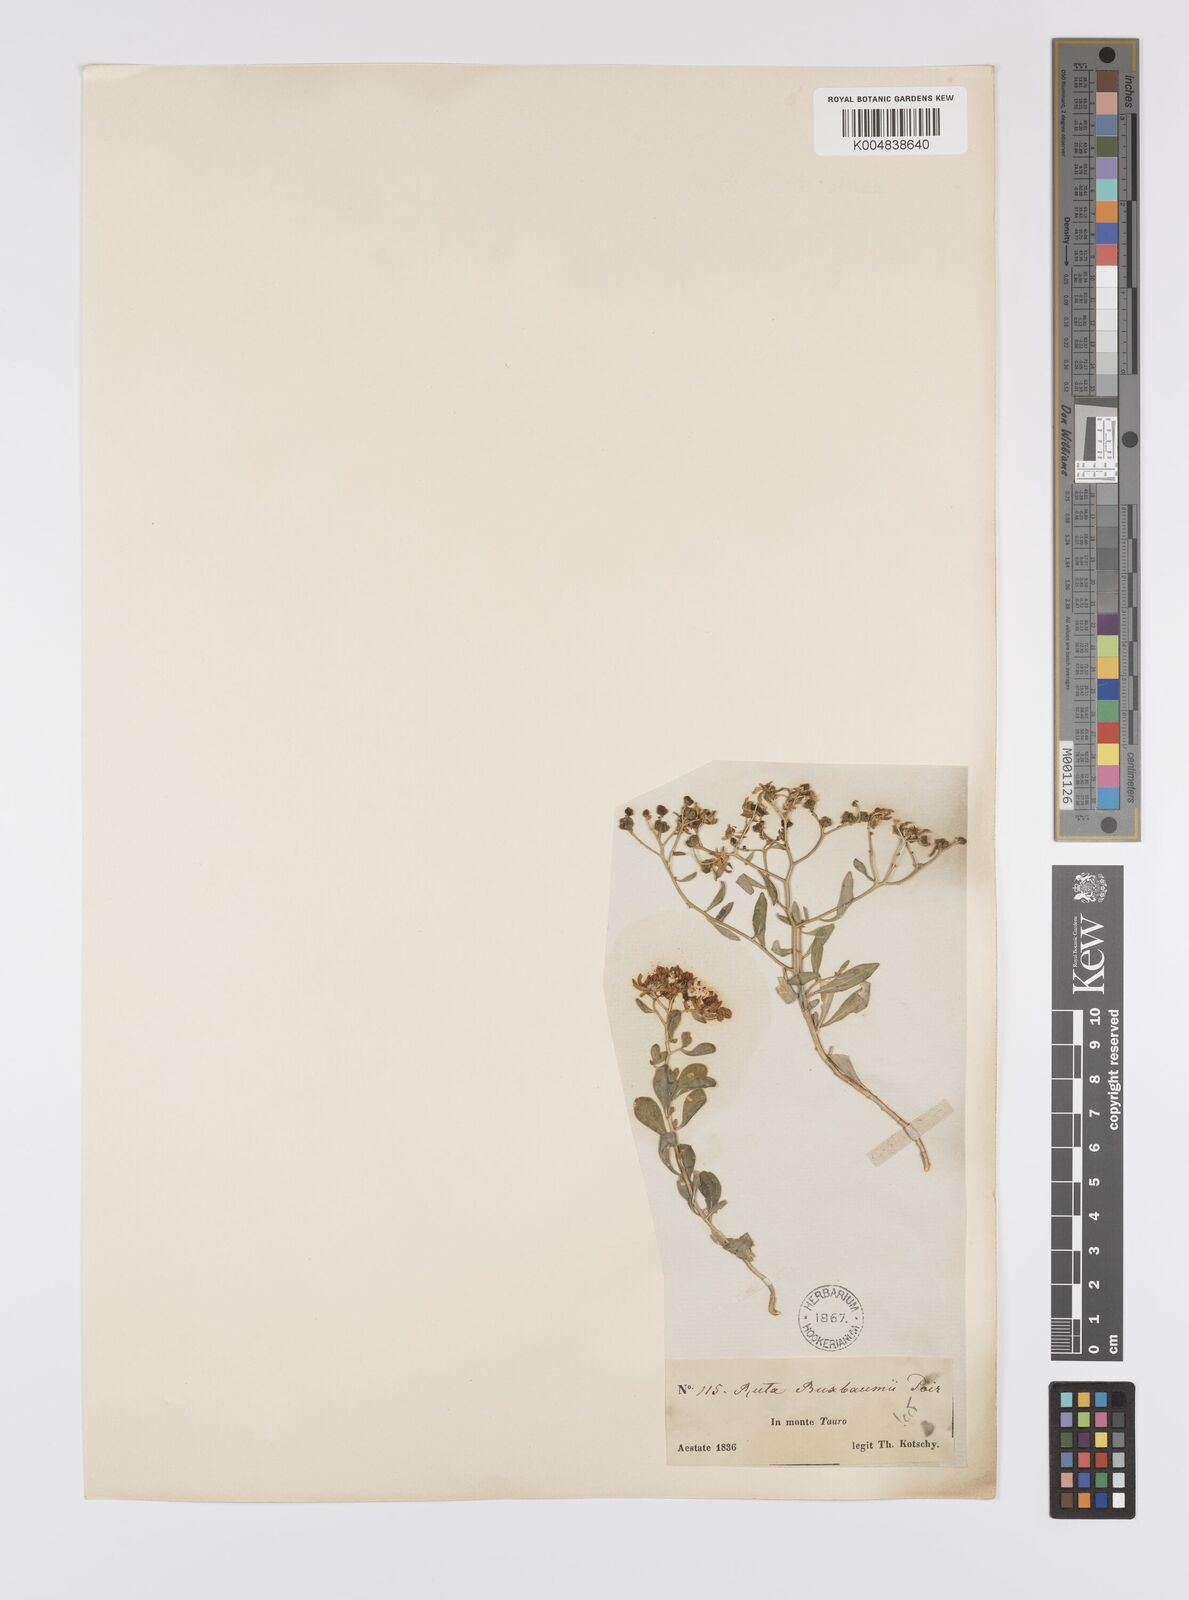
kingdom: Plantae
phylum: Tracheophyta
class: Magnoliopsida
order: Sapindales
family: Rutaceae
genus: Haplophyllum
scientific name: Haplophyllum
